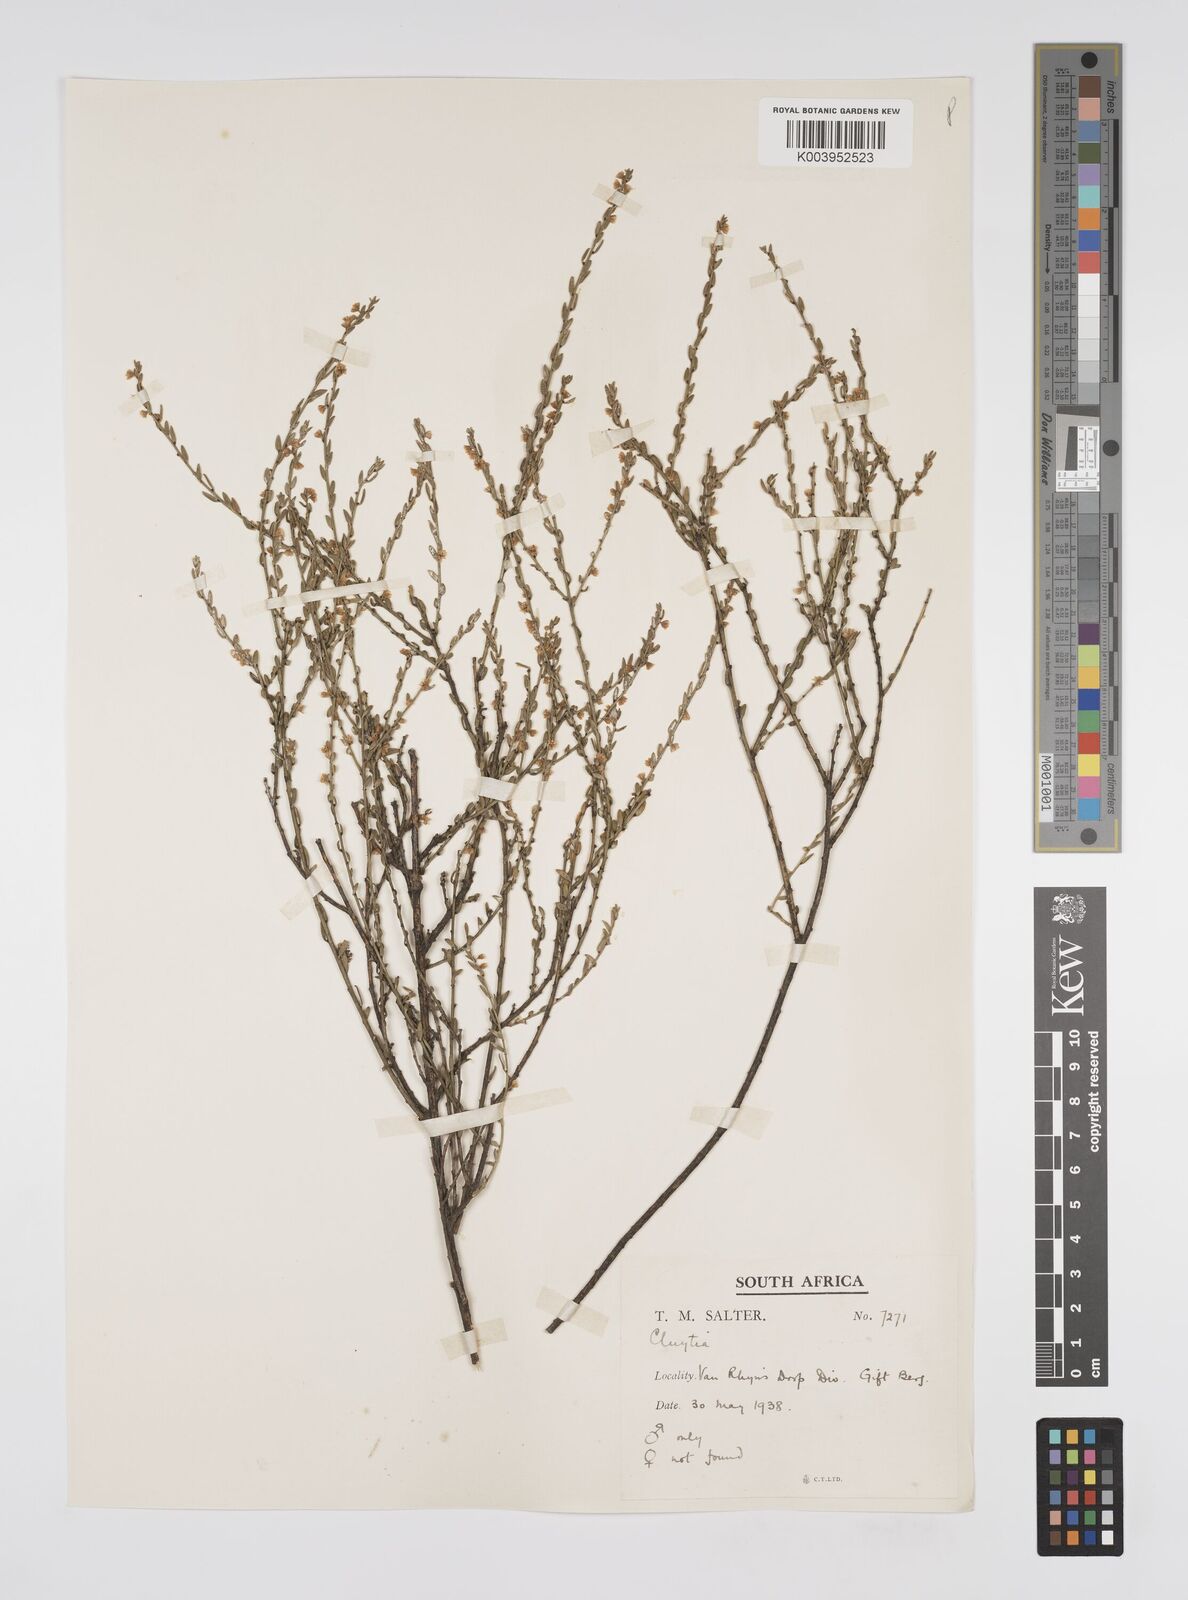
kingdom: Plantae
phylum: Tracheophyta
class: Magnoliopsida
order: Malpighiales
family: Peraceae
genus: Clutia
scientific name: Clutia
